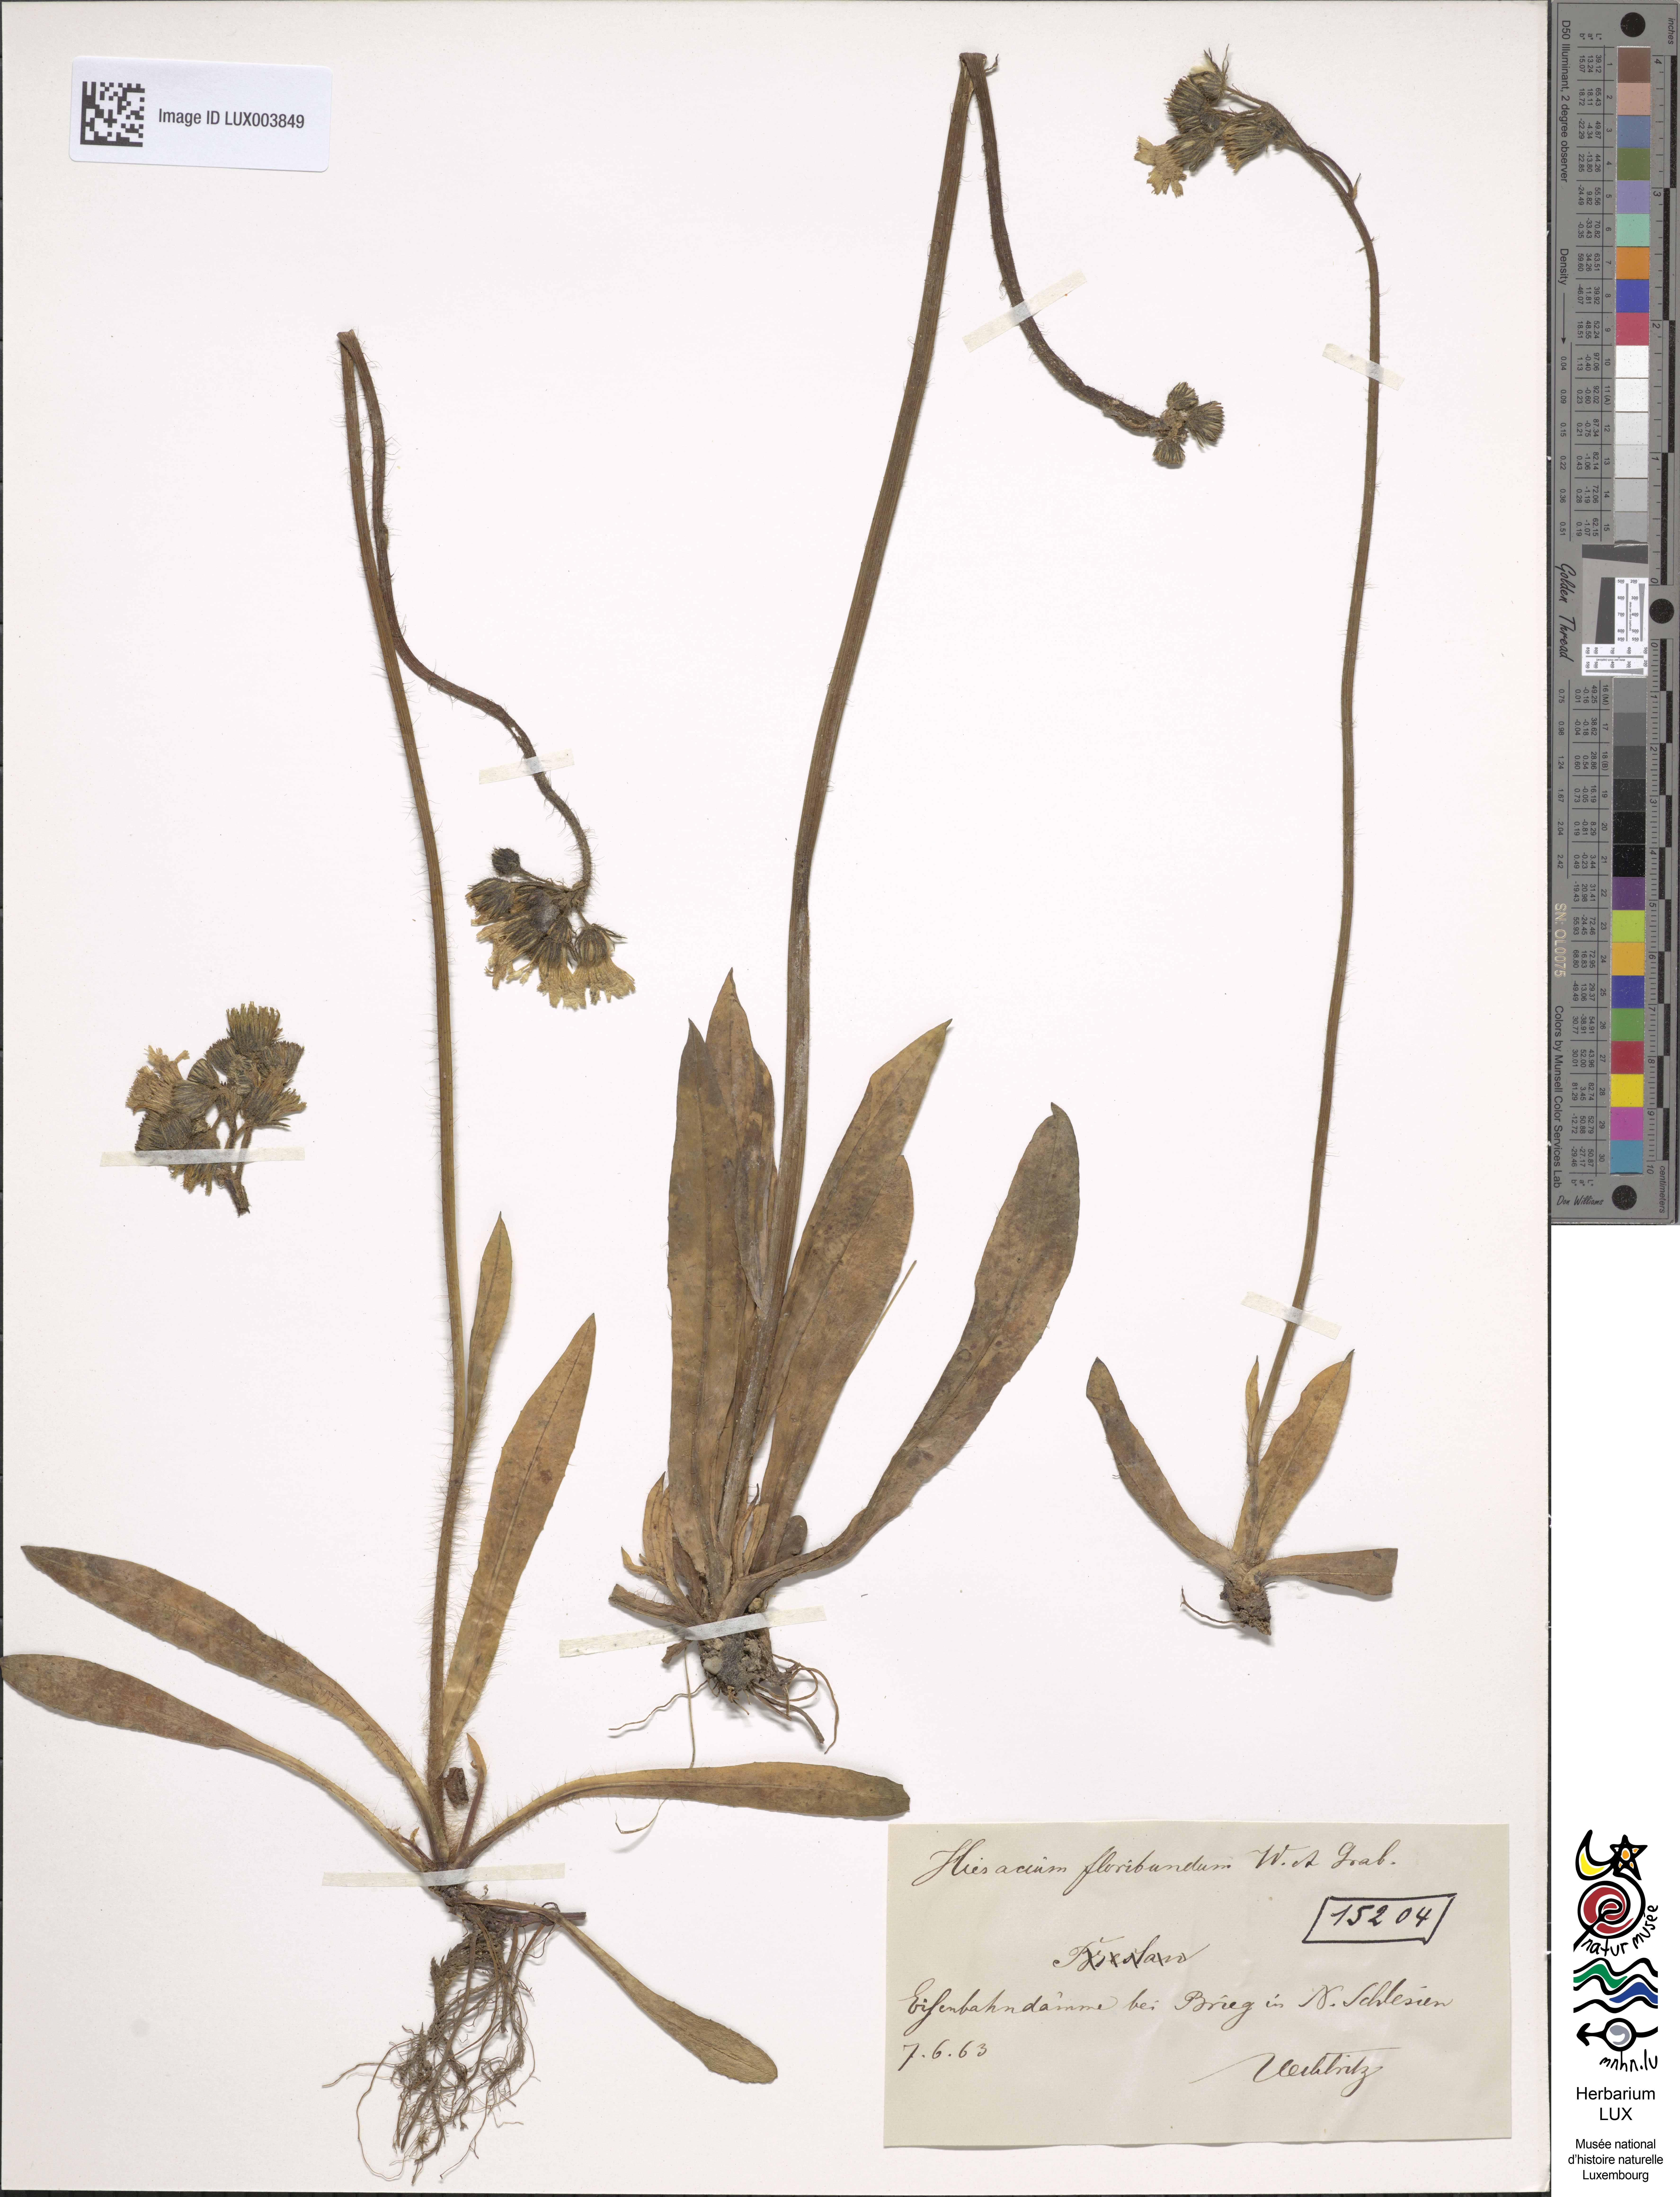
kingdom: Plantae
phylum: Tracheophyta
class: Magnoliopsida
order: Asterales
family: Asteraceae
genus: Pilosella
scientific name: Pilosella floribunda
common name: Glaucous hawkweed
